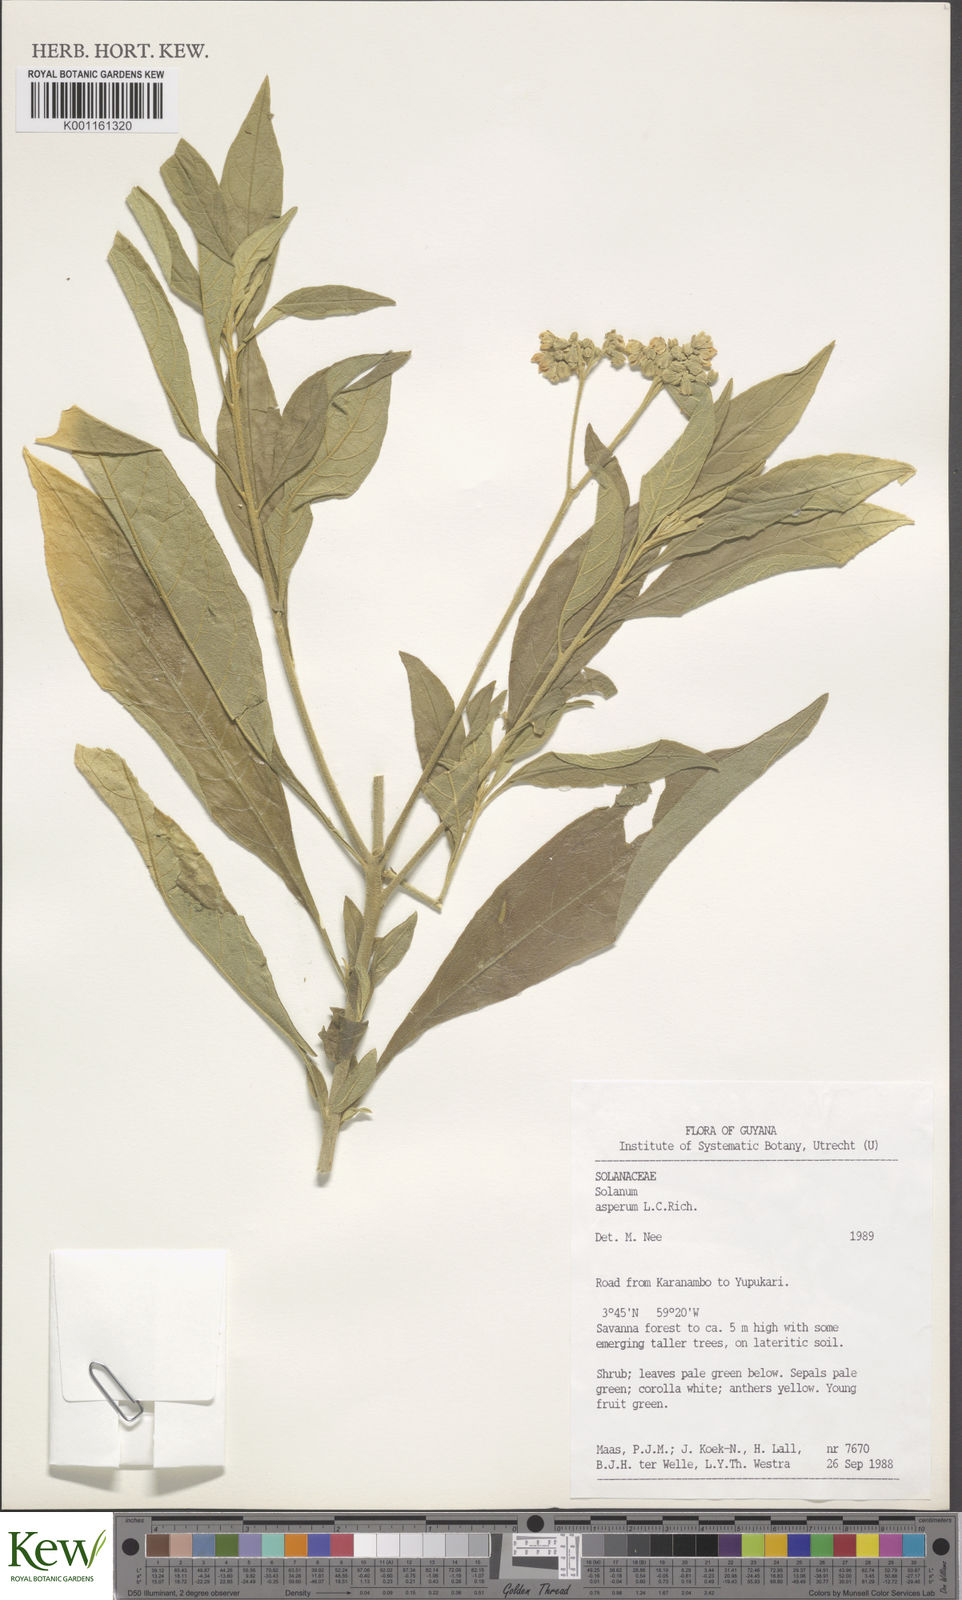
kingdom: Plantae
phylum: Tracheophyta
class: Magnoliopsida
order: Solanales
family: Solanaceae
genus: Solanum
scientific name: Solanum asperum
